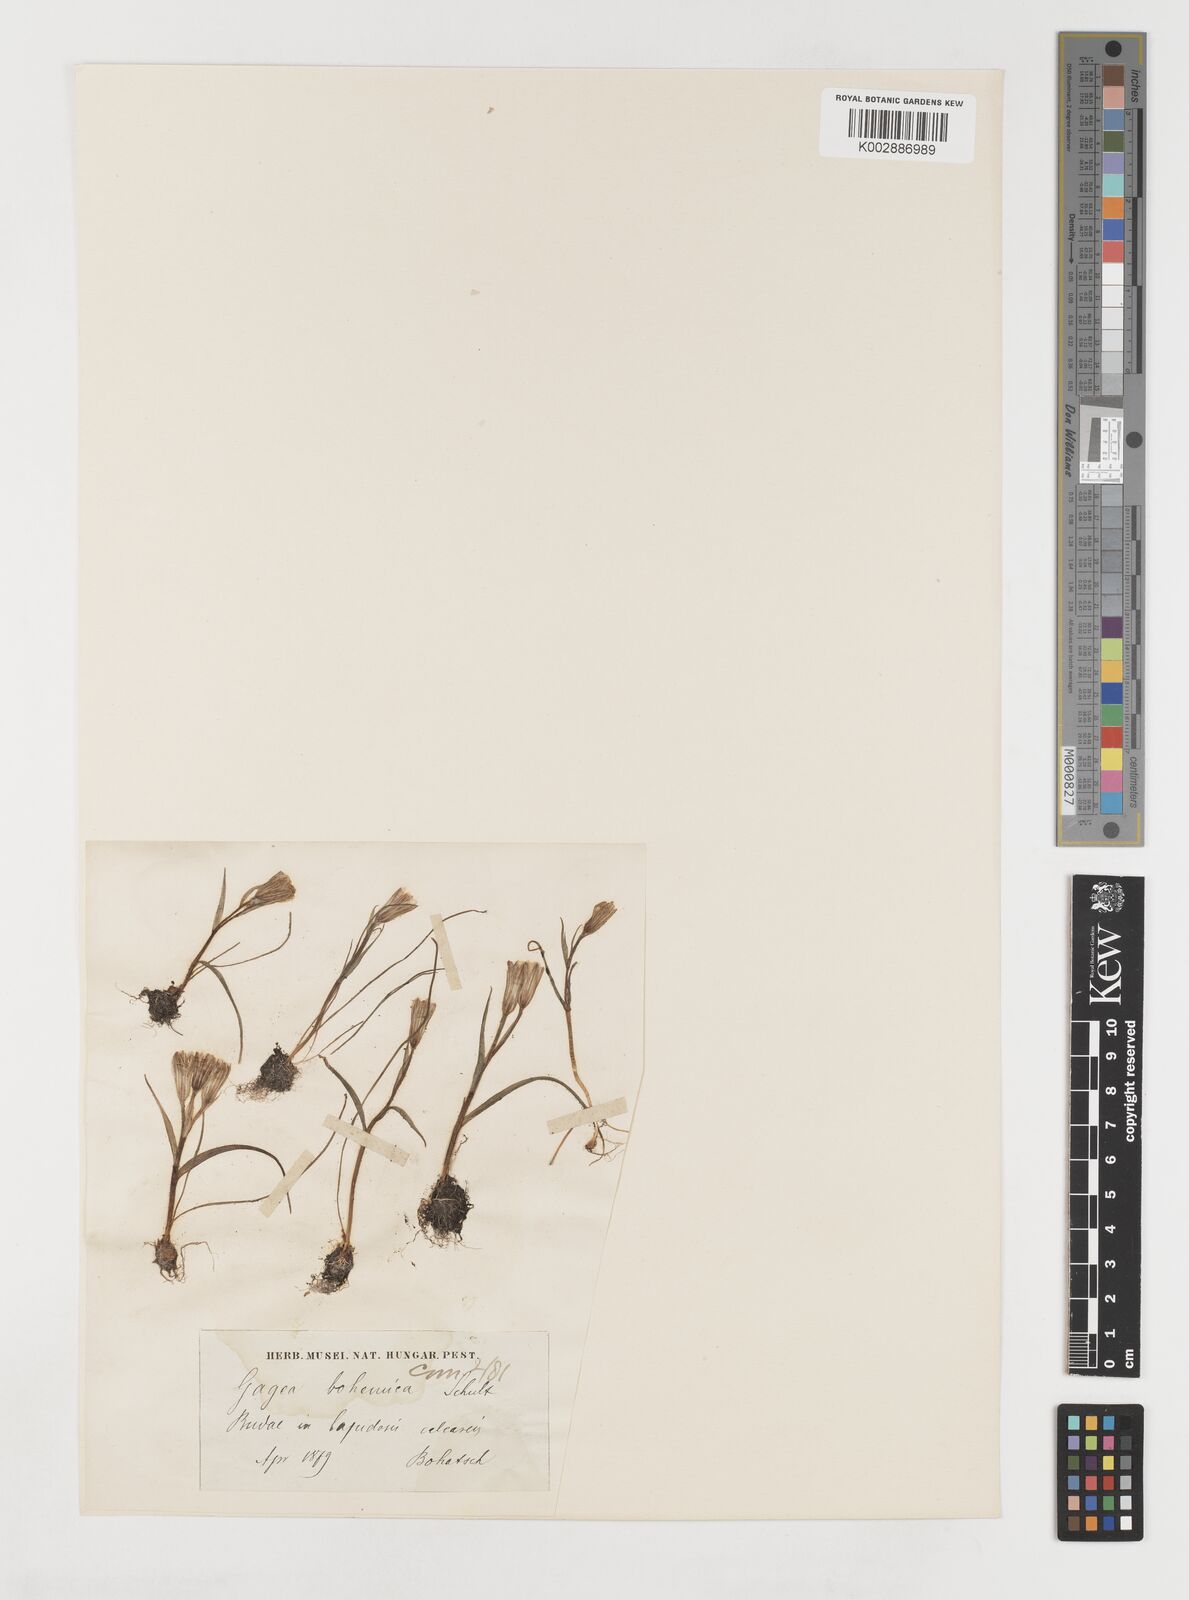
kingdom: Plantae
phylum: Tracheophyta
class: Liliopsida
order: Liliales
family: Liliaceae
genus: Gagea
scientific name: Gagea bohemica
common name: Early star-of-bethlehem
